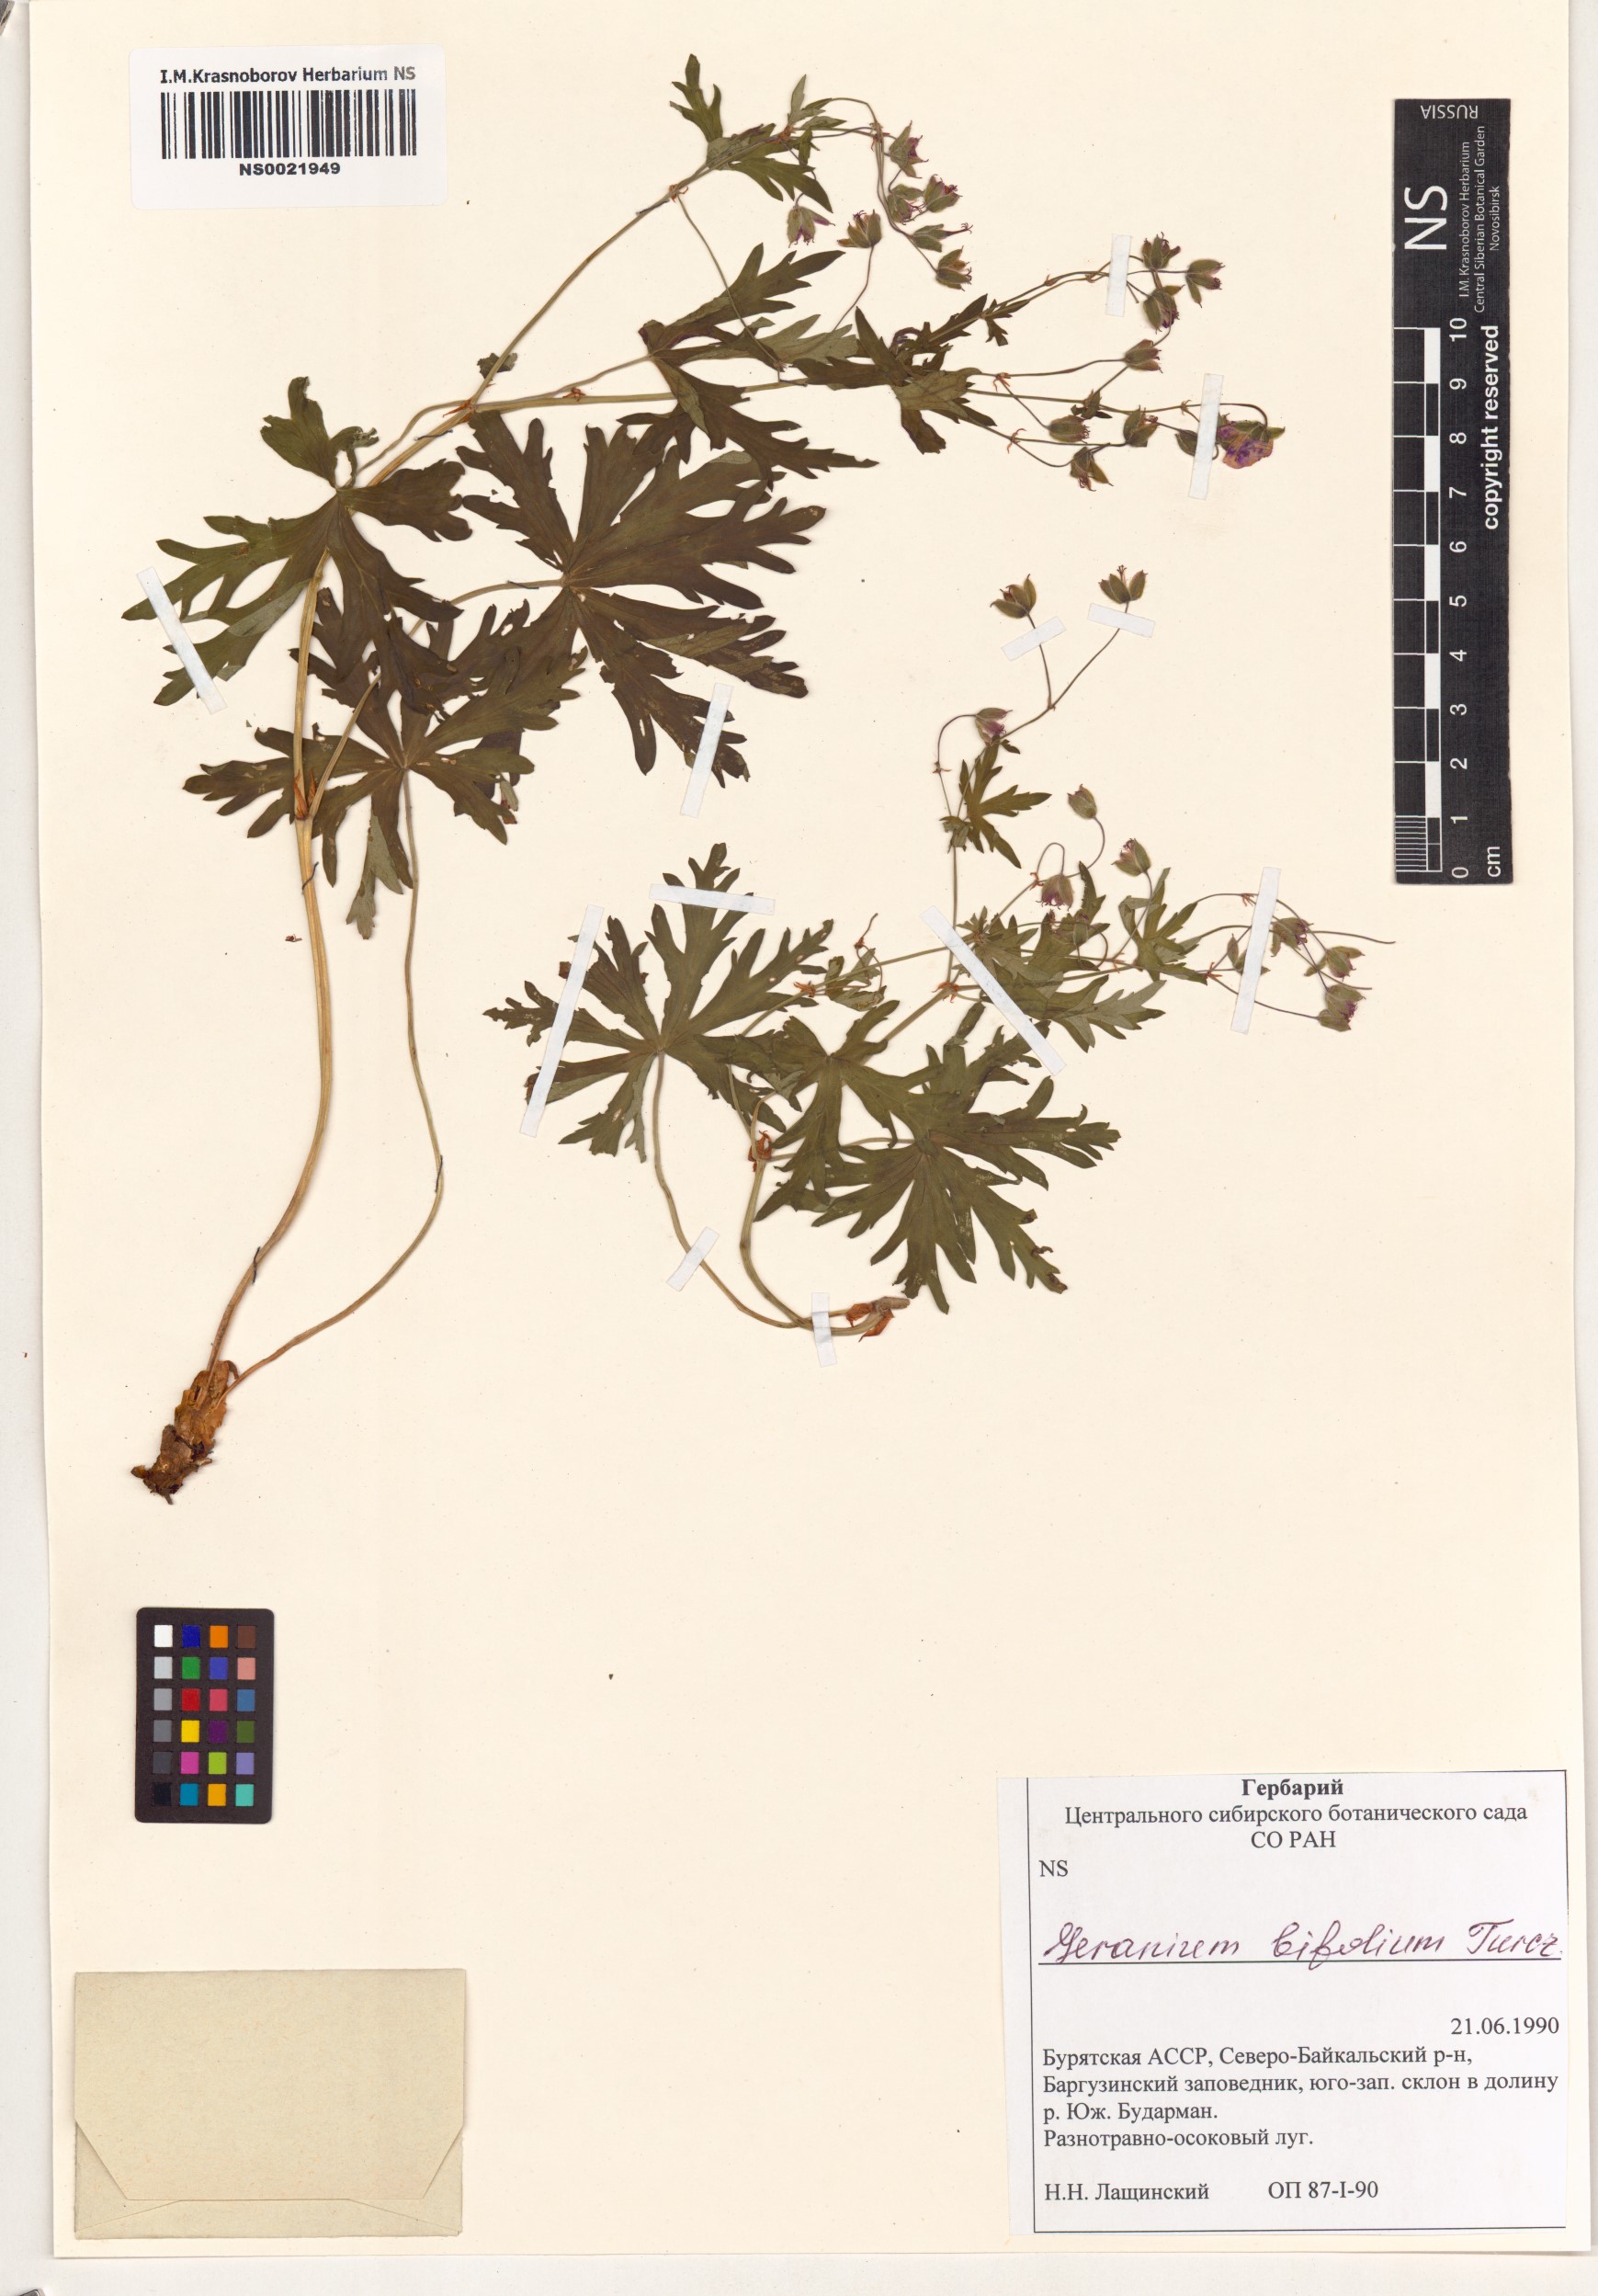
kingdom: Plantae
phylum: Tracheophyta
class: Magnoliopsida
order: Geraniales
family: Geraniaceae
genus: Geranium
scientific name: Geranium pseudosibiricum
